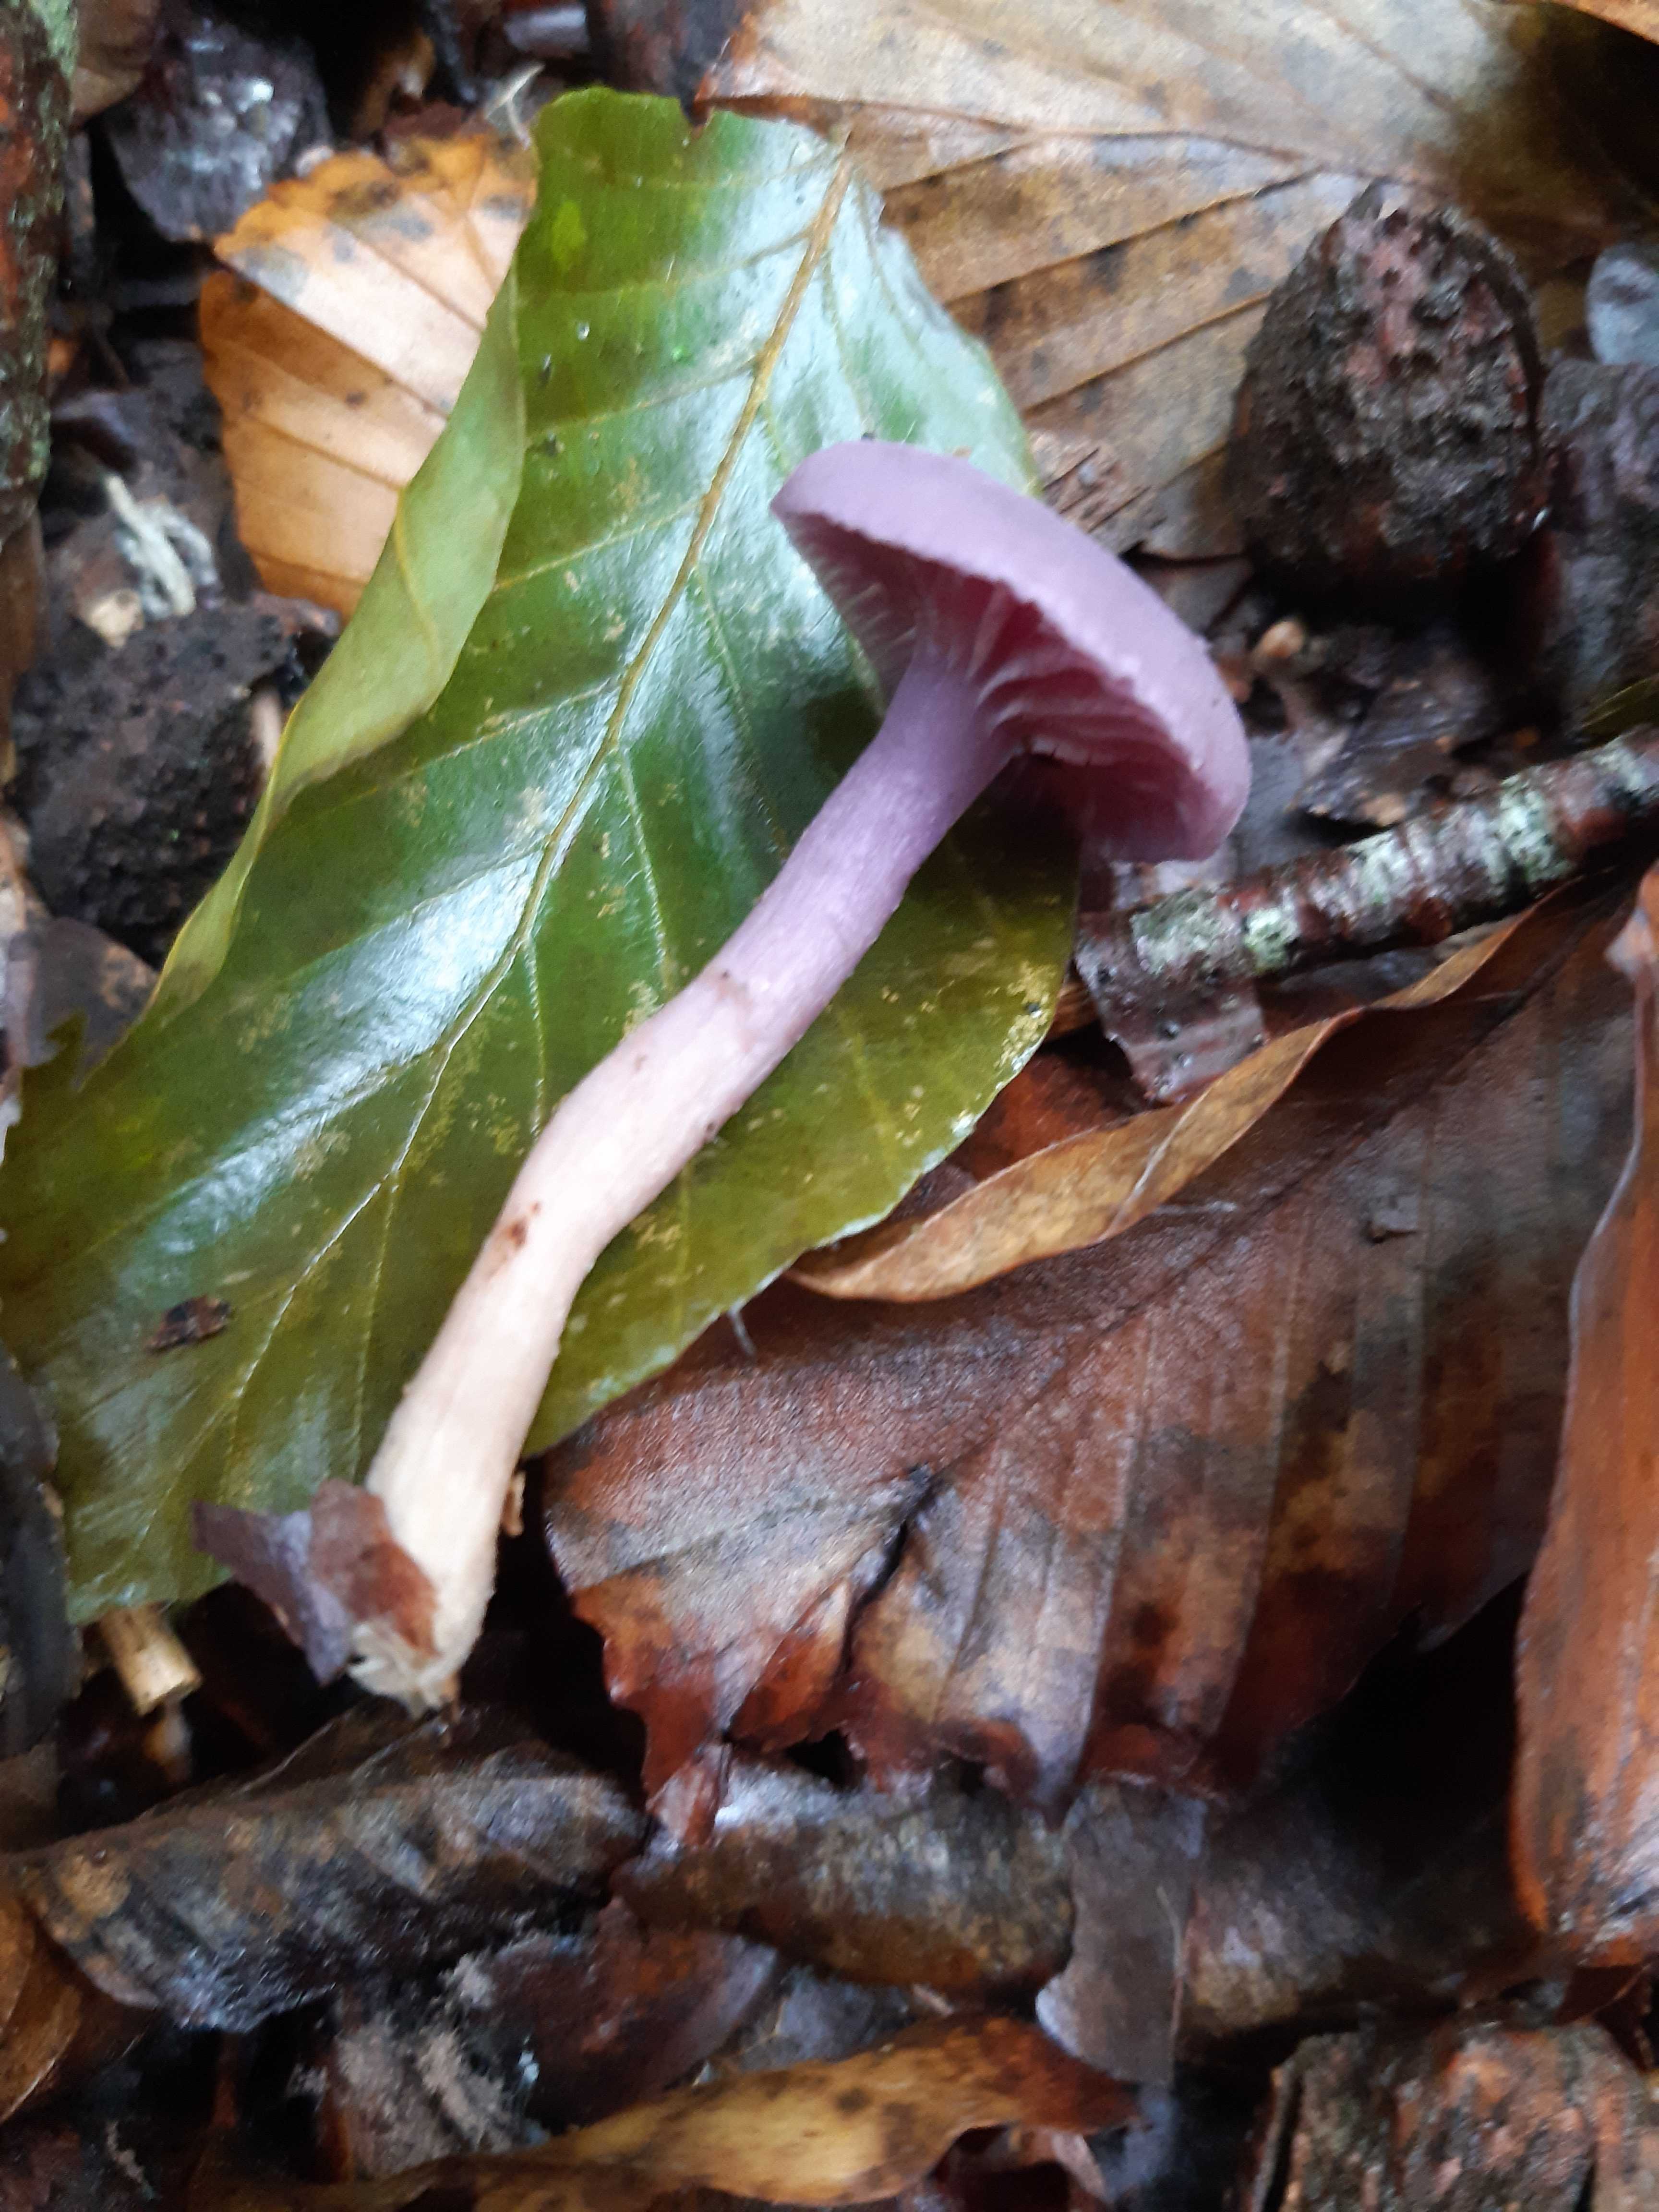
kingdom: Fungi
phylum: Basidiomycota
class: Agaricomycetes
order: Agaricales
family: Hydnangiaceae
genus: Laccaria
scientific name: Laccaria amethystina
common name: violet ametysthat
